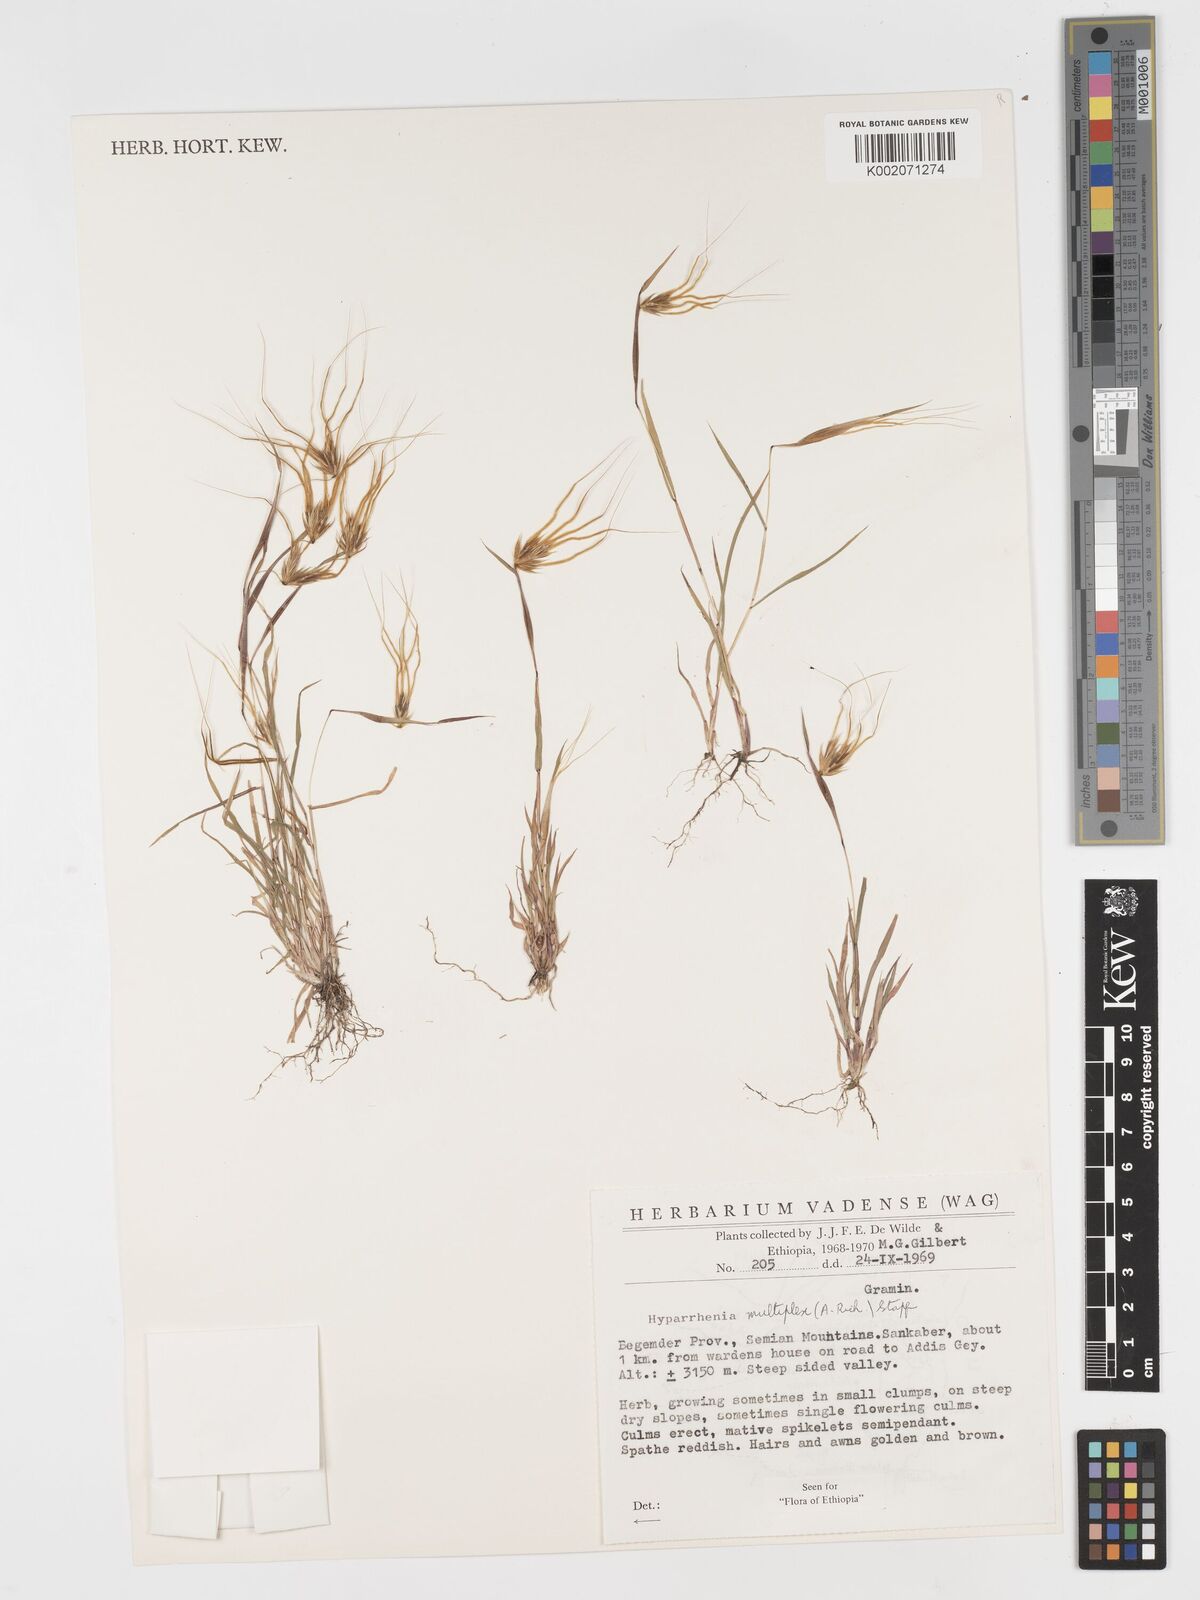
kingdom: Plantae
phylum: Tracheophyta
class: Liliopsida
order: Poales
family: Poaceae
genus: Hyparrhenia
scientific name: Hyparrhenia multiplex
